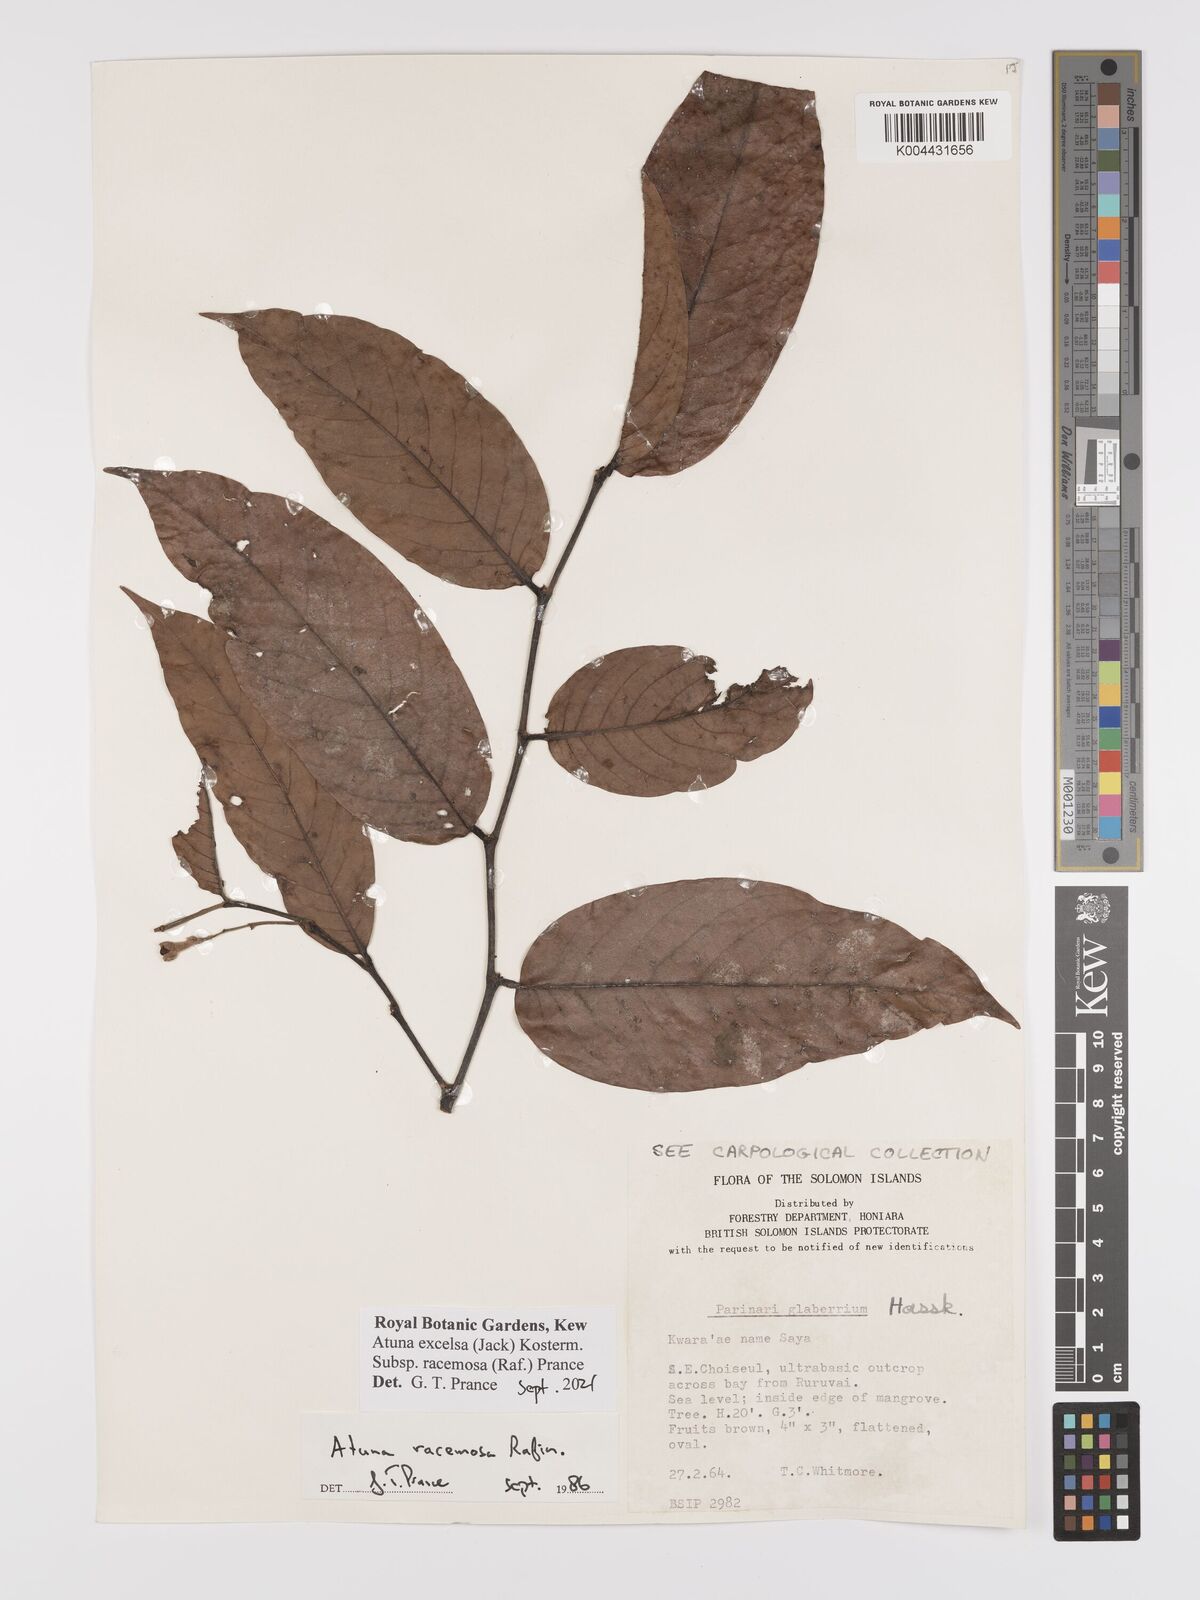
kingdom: Plantae
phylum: Tracheophyta
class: Magnoliopsida
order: Malpighiales
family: Chrysobalanaceae
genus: Atuna
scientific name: Atuna excelsa
